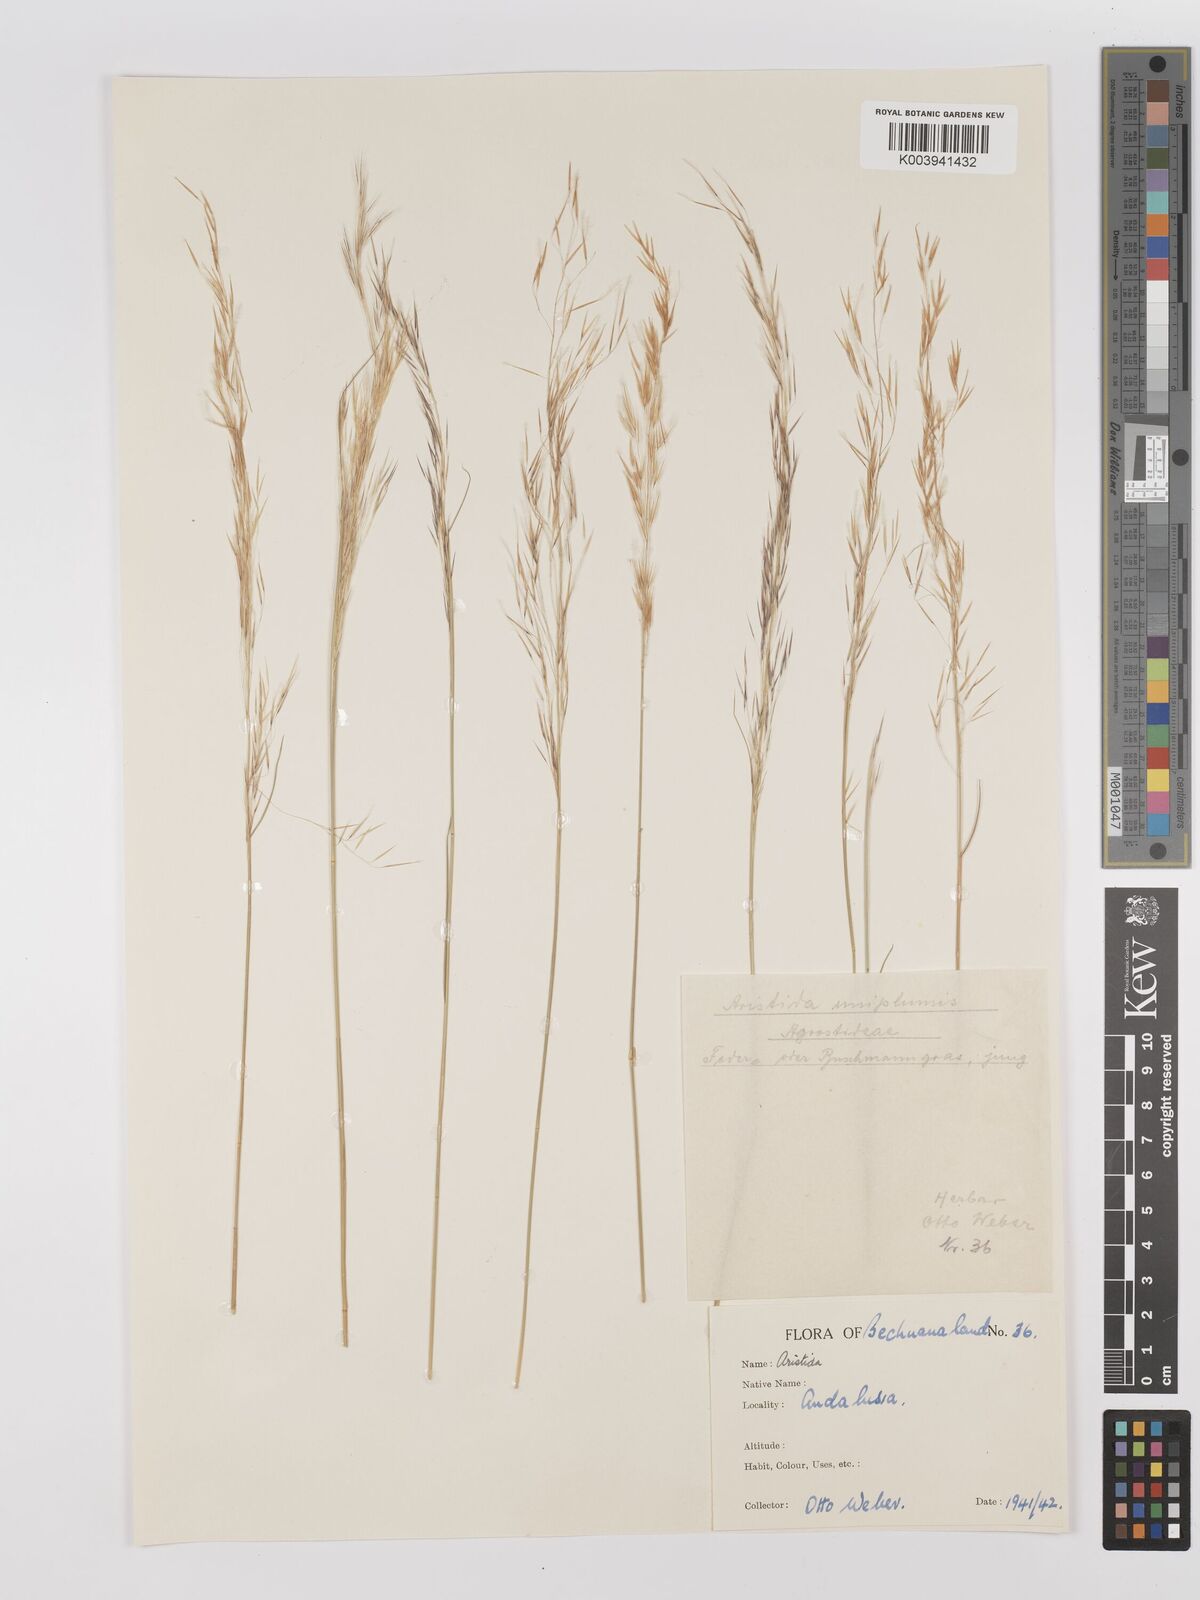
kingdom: Plantae
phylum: Tracheophyta
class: Liliopsida
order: Poales
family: Poaceae
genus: Stipagrostis
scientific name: Stipagrostis uniplumis
